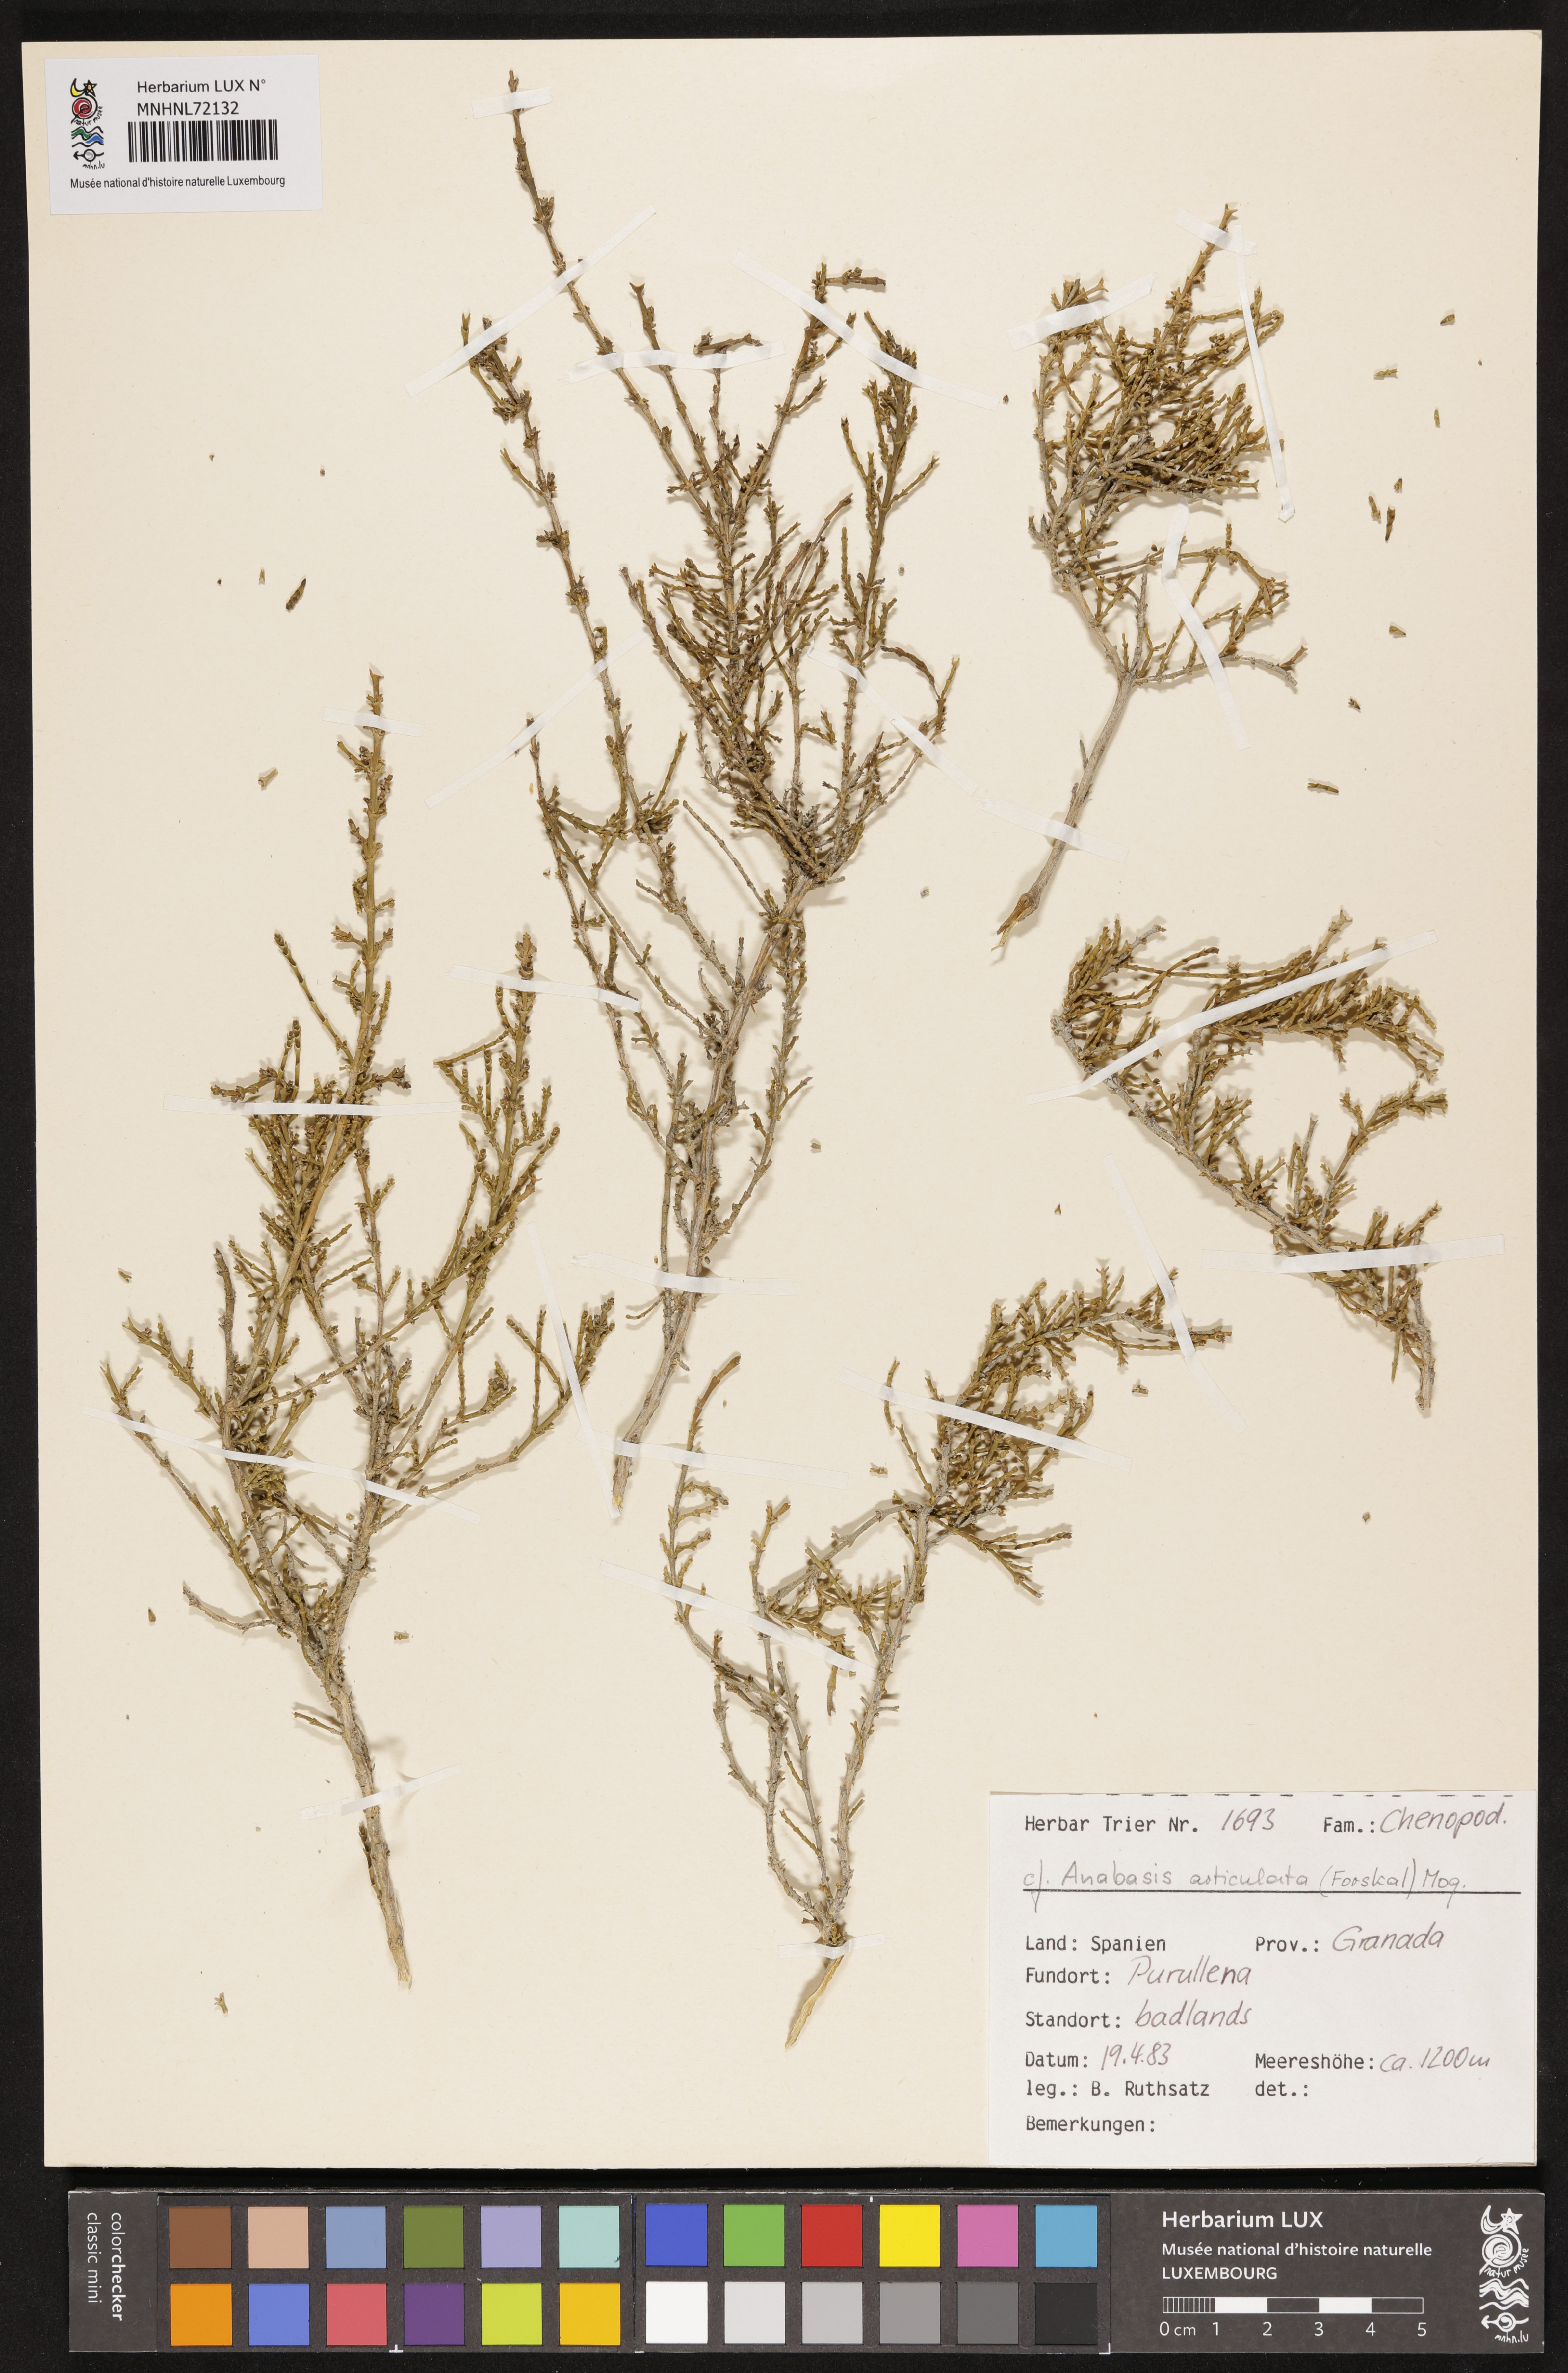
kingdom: Plantae
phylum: Tracheophyta
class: Magnoliopsida
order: Caryophyllales
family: Amaranthaceae
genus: Anabasis
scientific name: Anabasis articulata
